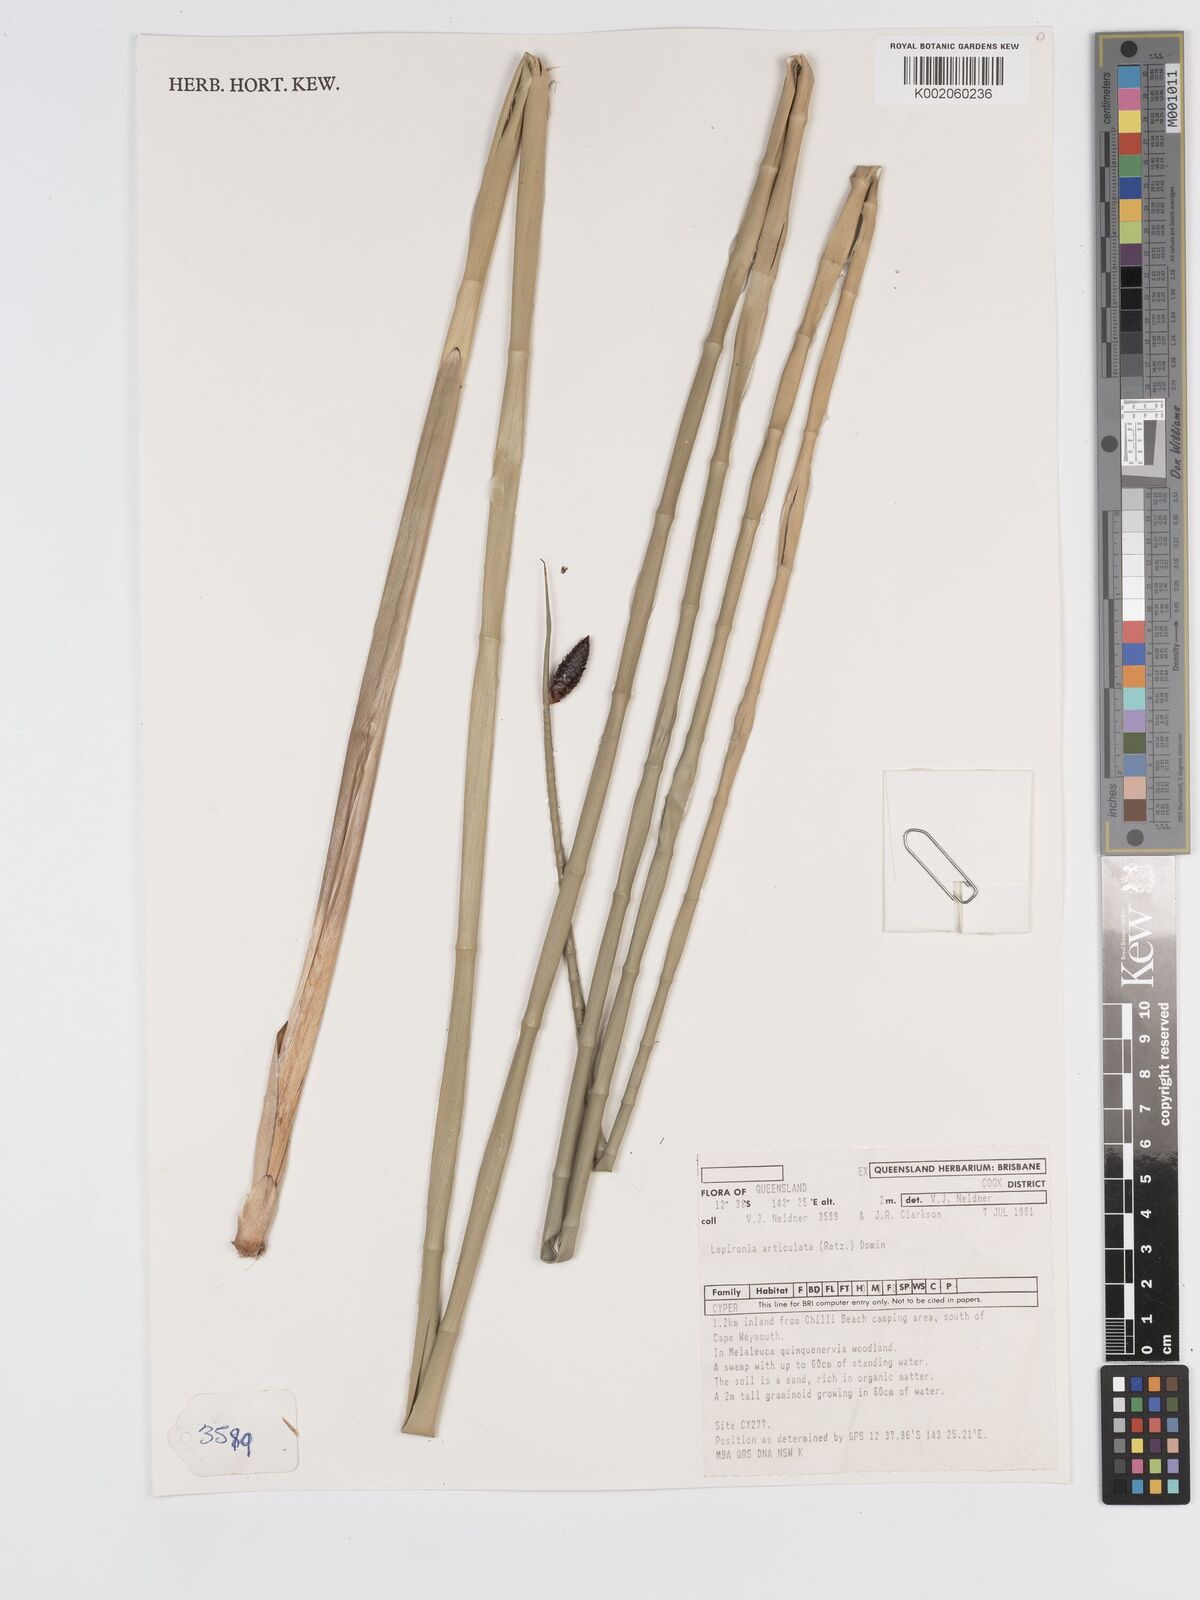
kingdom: Plantae
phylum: Tracheophyta
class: Liliopsida
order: Poales
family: Cyperaceae
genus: Lepironia
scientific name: Lepironia articulata
